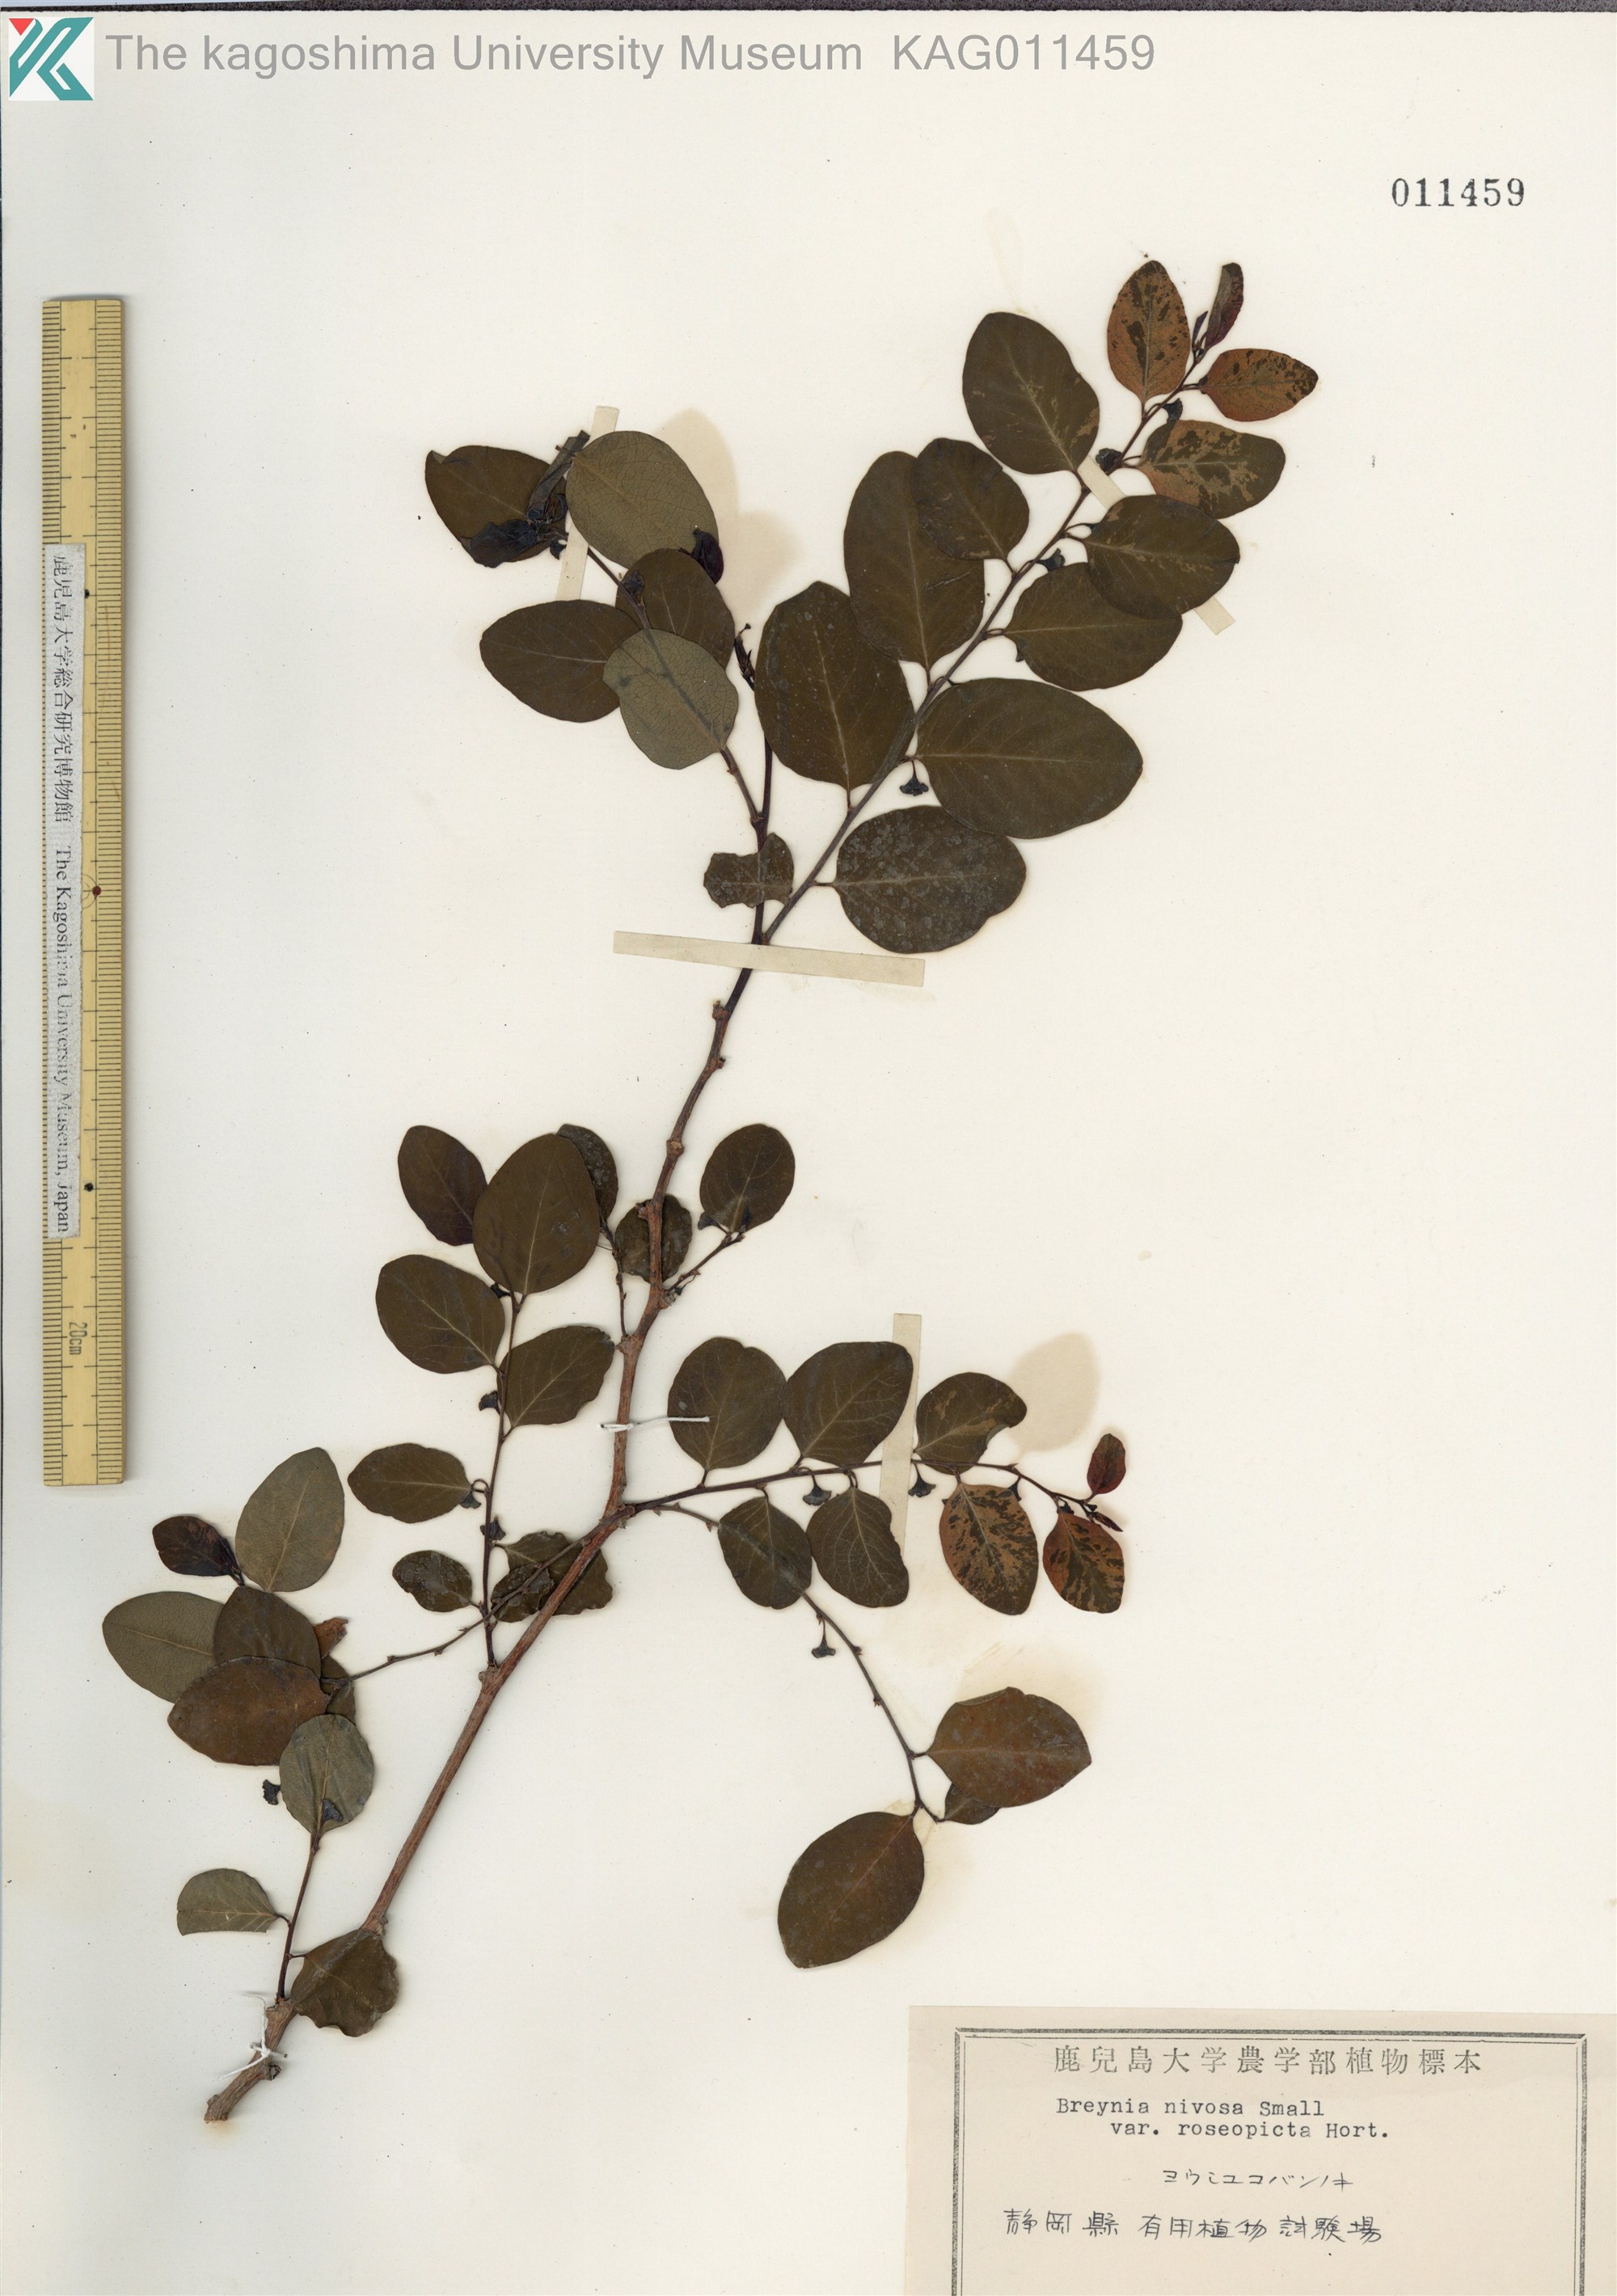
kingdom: Plantae
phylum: Tracheophyta
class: Magnoliopsida
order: Malpighiales
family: Phyllanthaceae
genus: Breynia
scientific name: Breynia disticha
